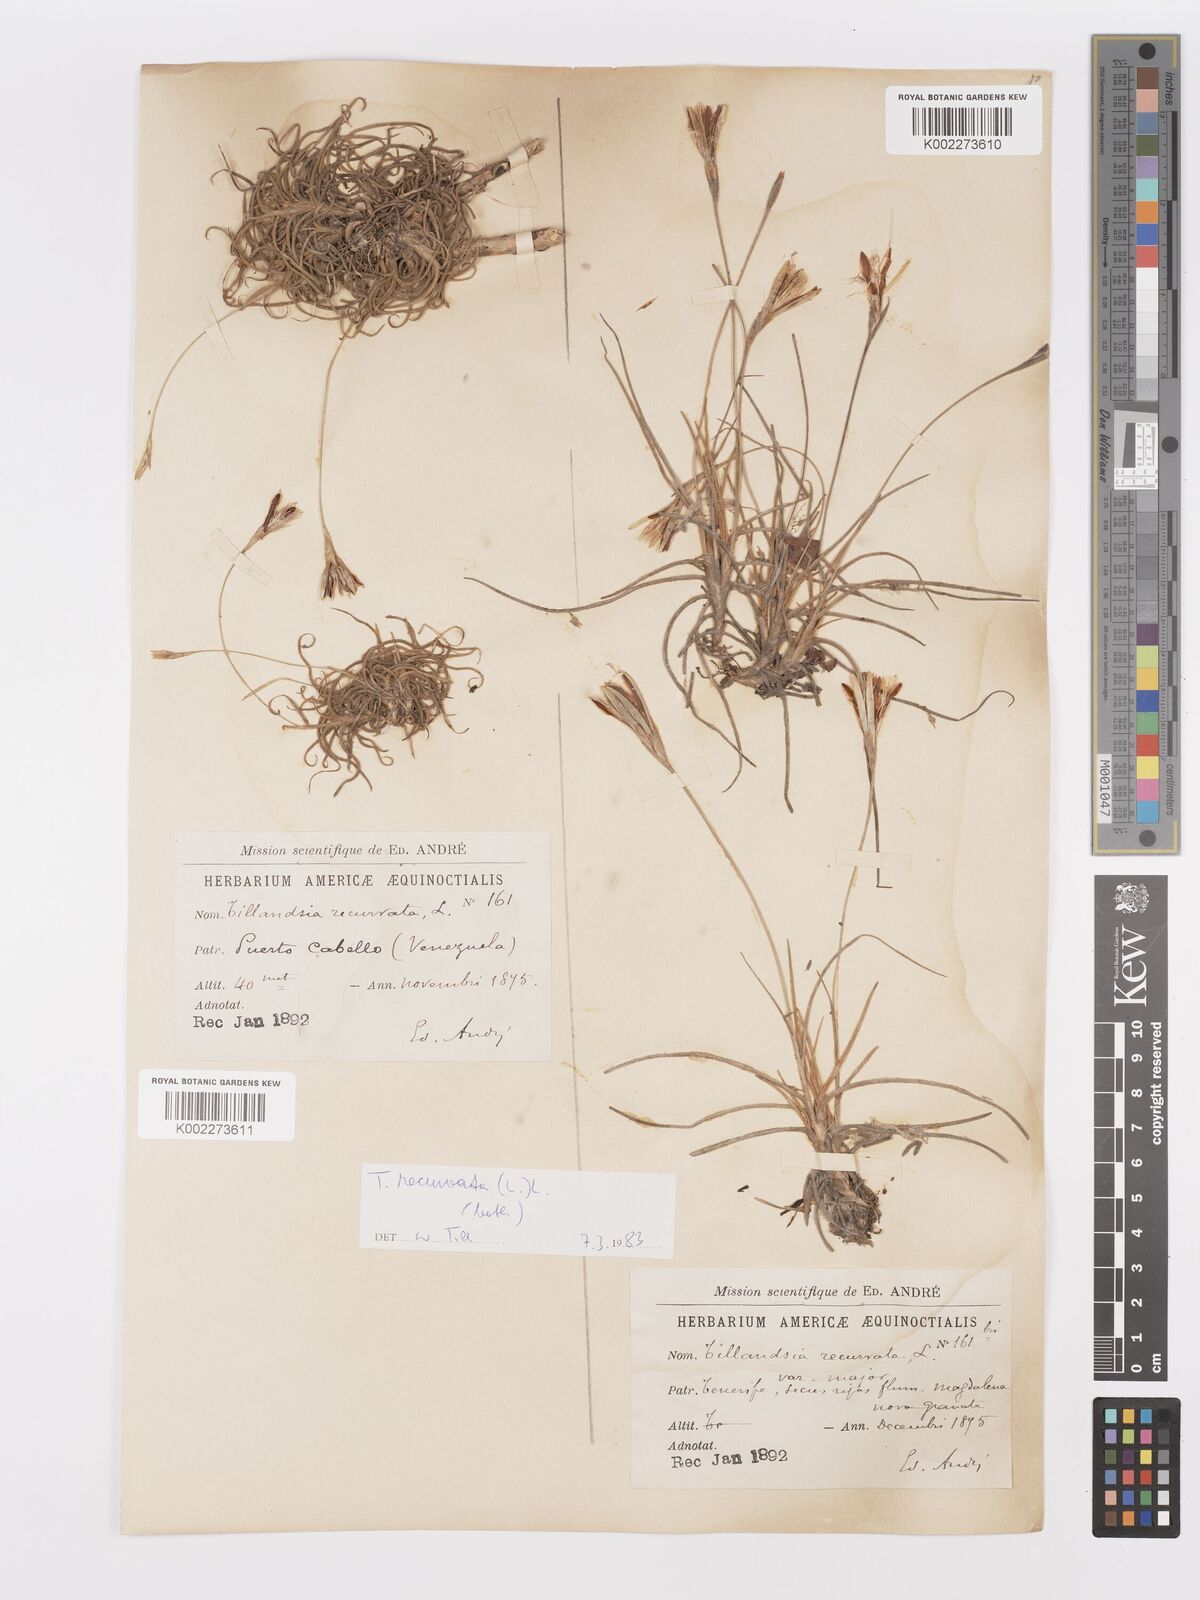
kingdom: Plantae
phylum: Tracheophyta
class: Liliopsida
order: Poales
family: Bromeliaceae
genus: Tillandsia
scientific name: Tillandsia recurvata
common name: Small ballmoss
